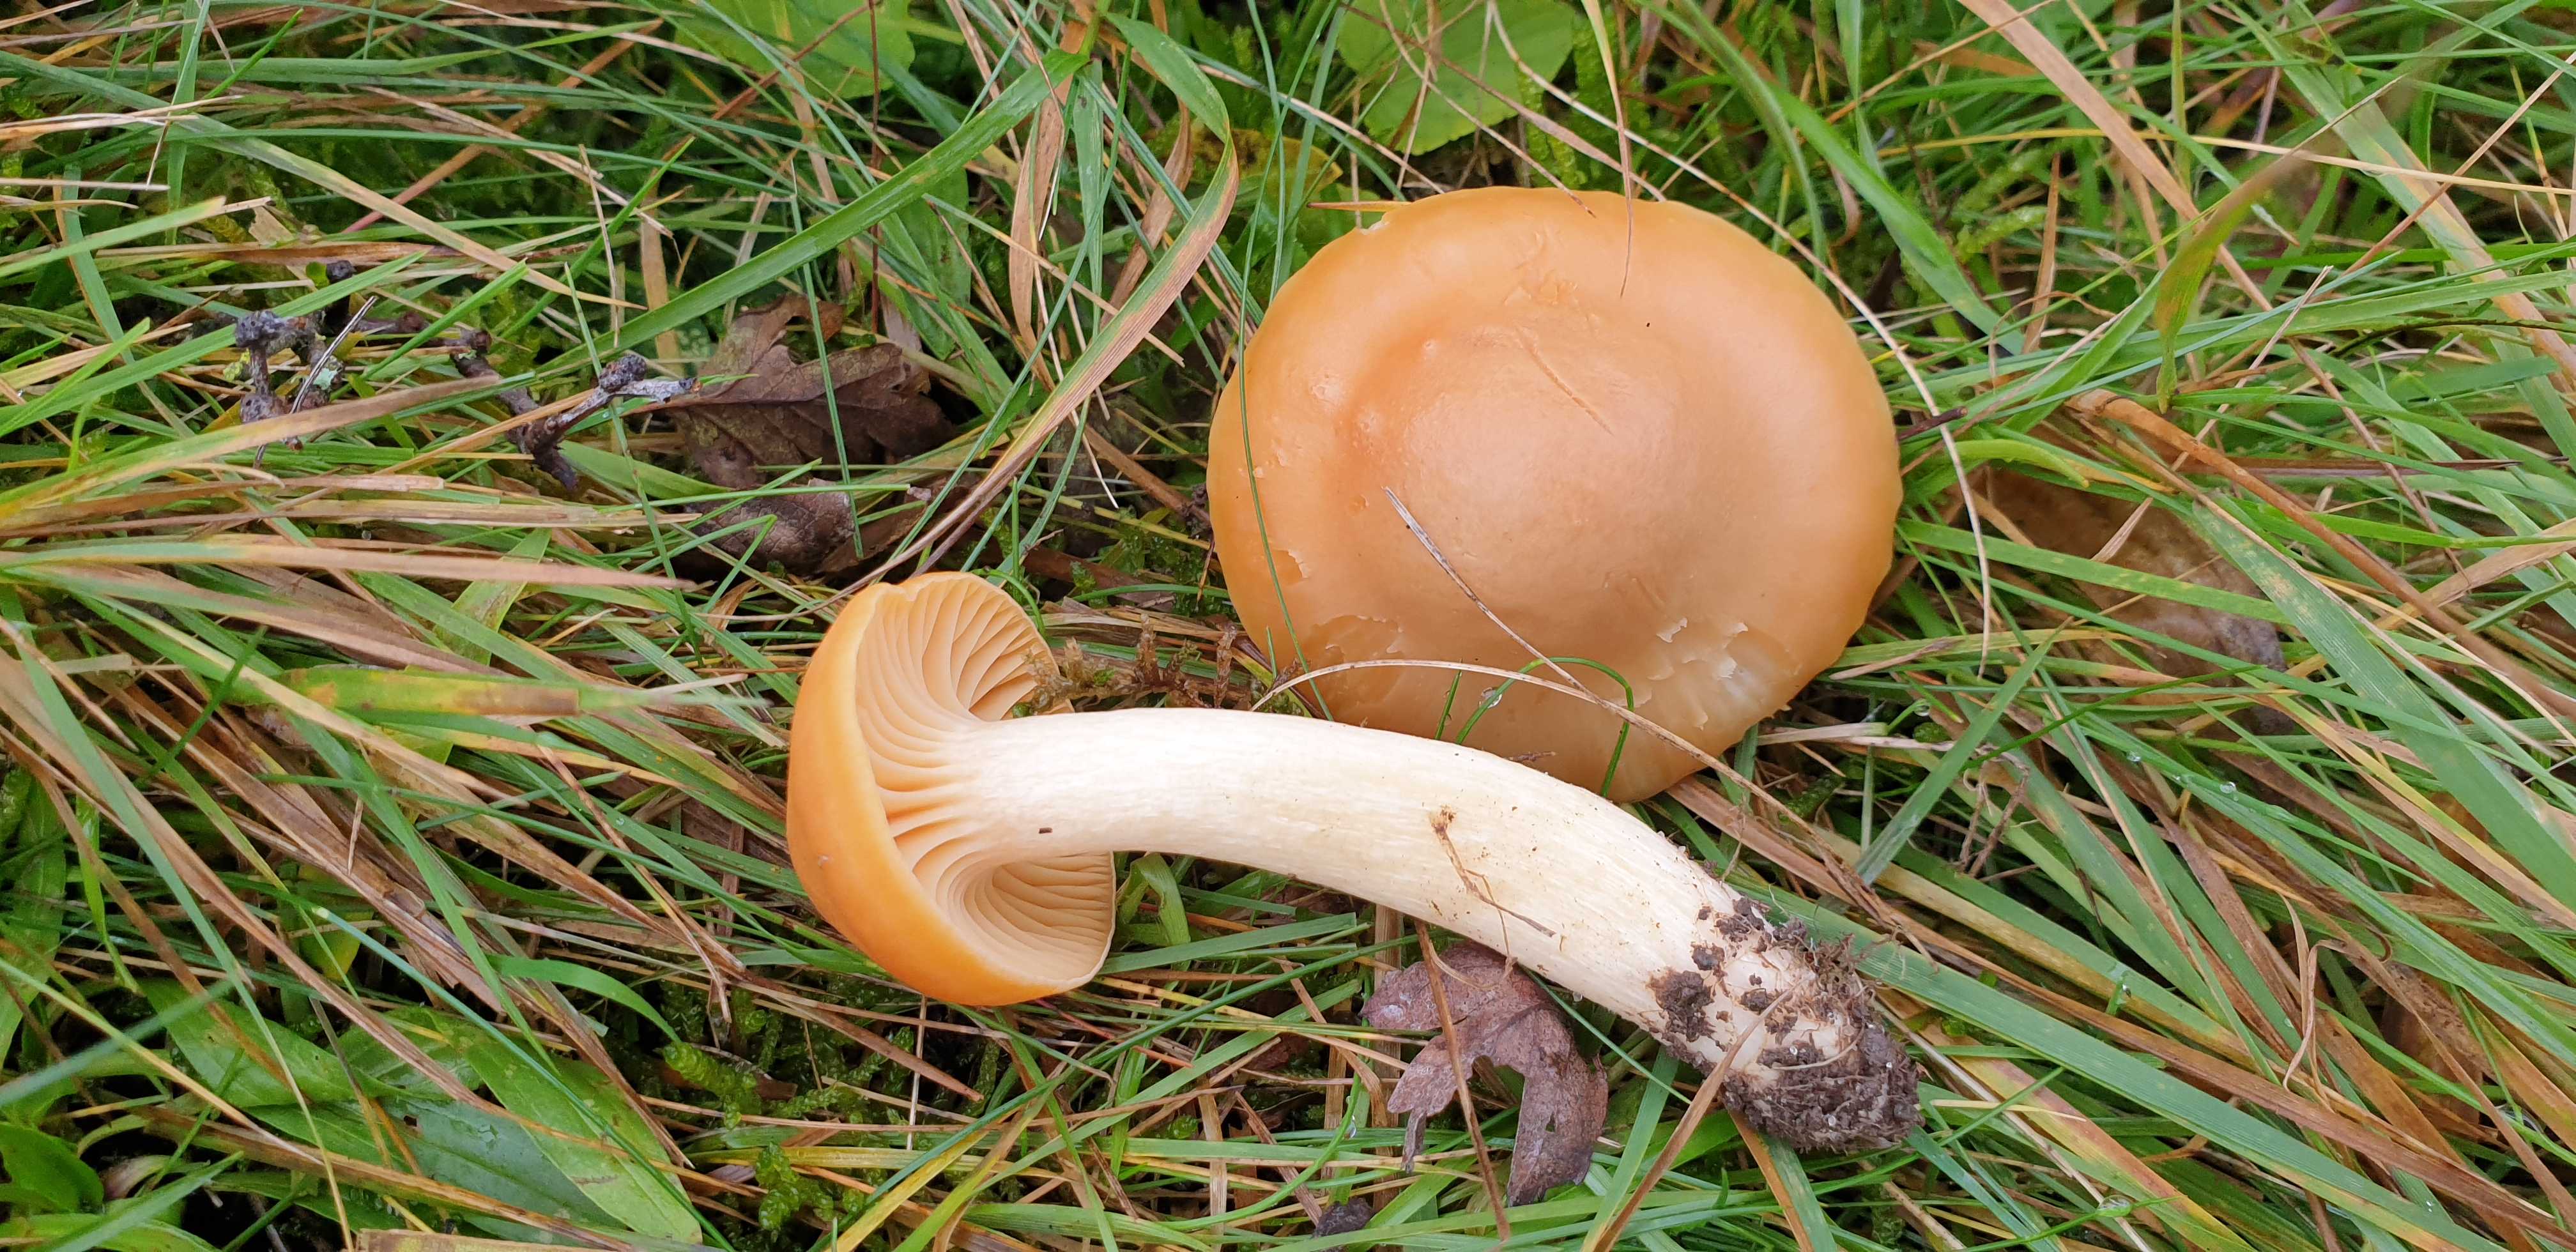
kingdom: Fungi
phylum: Basidiomycota
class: Agaricomycetes
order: Agaricales
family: Hygrophoraceae
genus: Cuphophyllus
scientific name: Cuphophyllus pratensis
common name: eng-vokshat
